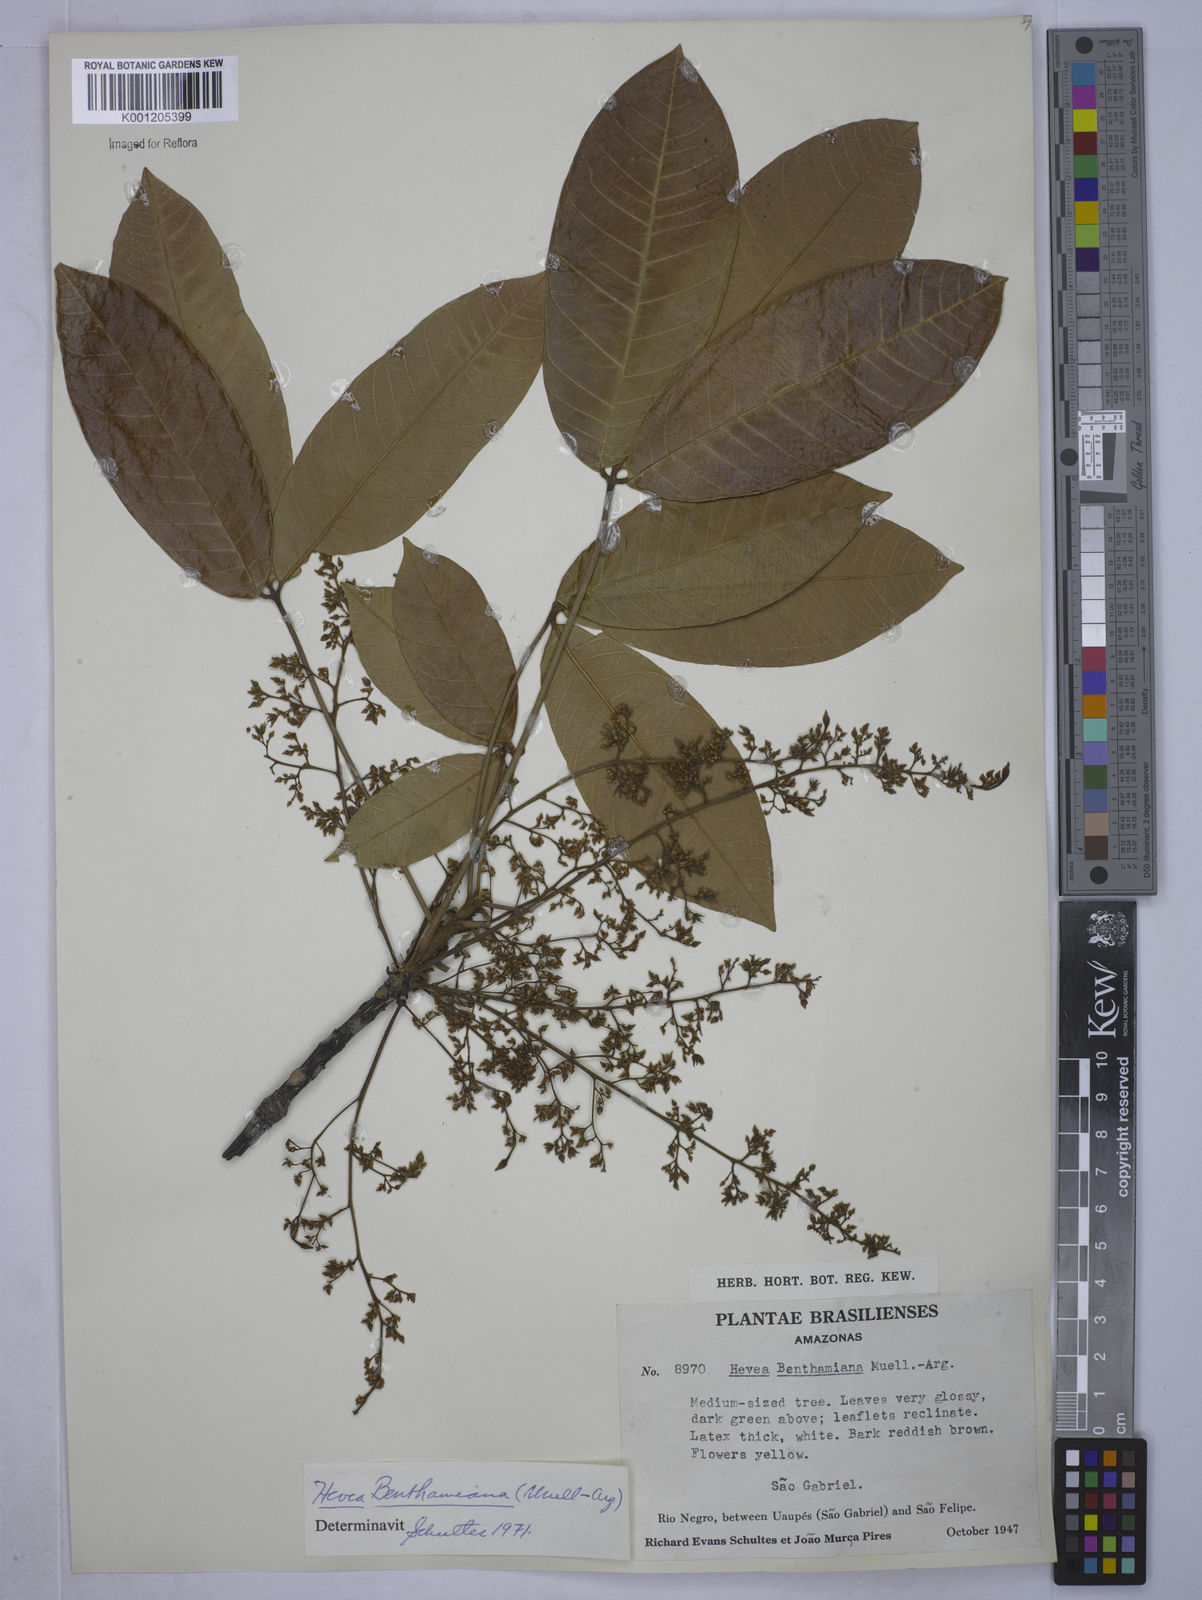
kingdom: Plantae
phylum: Tracheophyta
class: Magnoliopsida
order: Malpighiales
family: Euphorbiaceae
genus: Hevea
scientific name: Hevea
